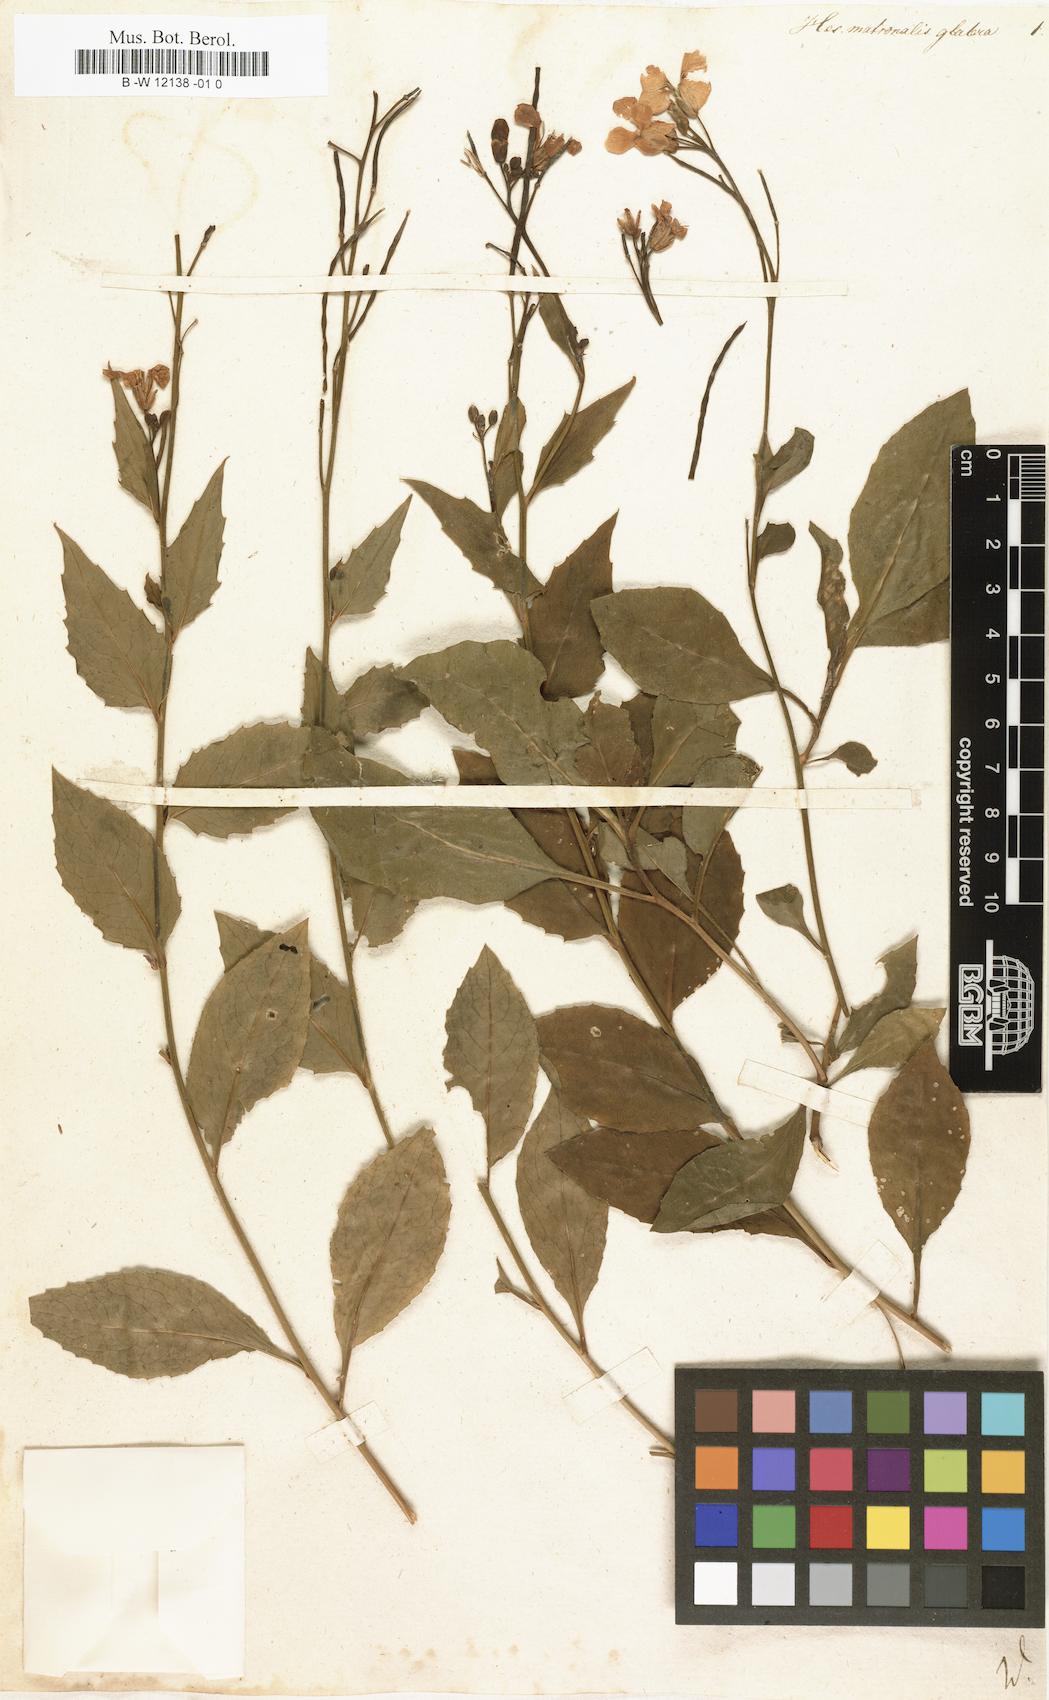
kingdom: Plantae
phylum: Tracheophyta
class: Magnoliopsida
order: Brassicales
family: Brassicaceae
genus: Hesperis
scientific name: Hesperis matronalis
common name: Dame's-violet
